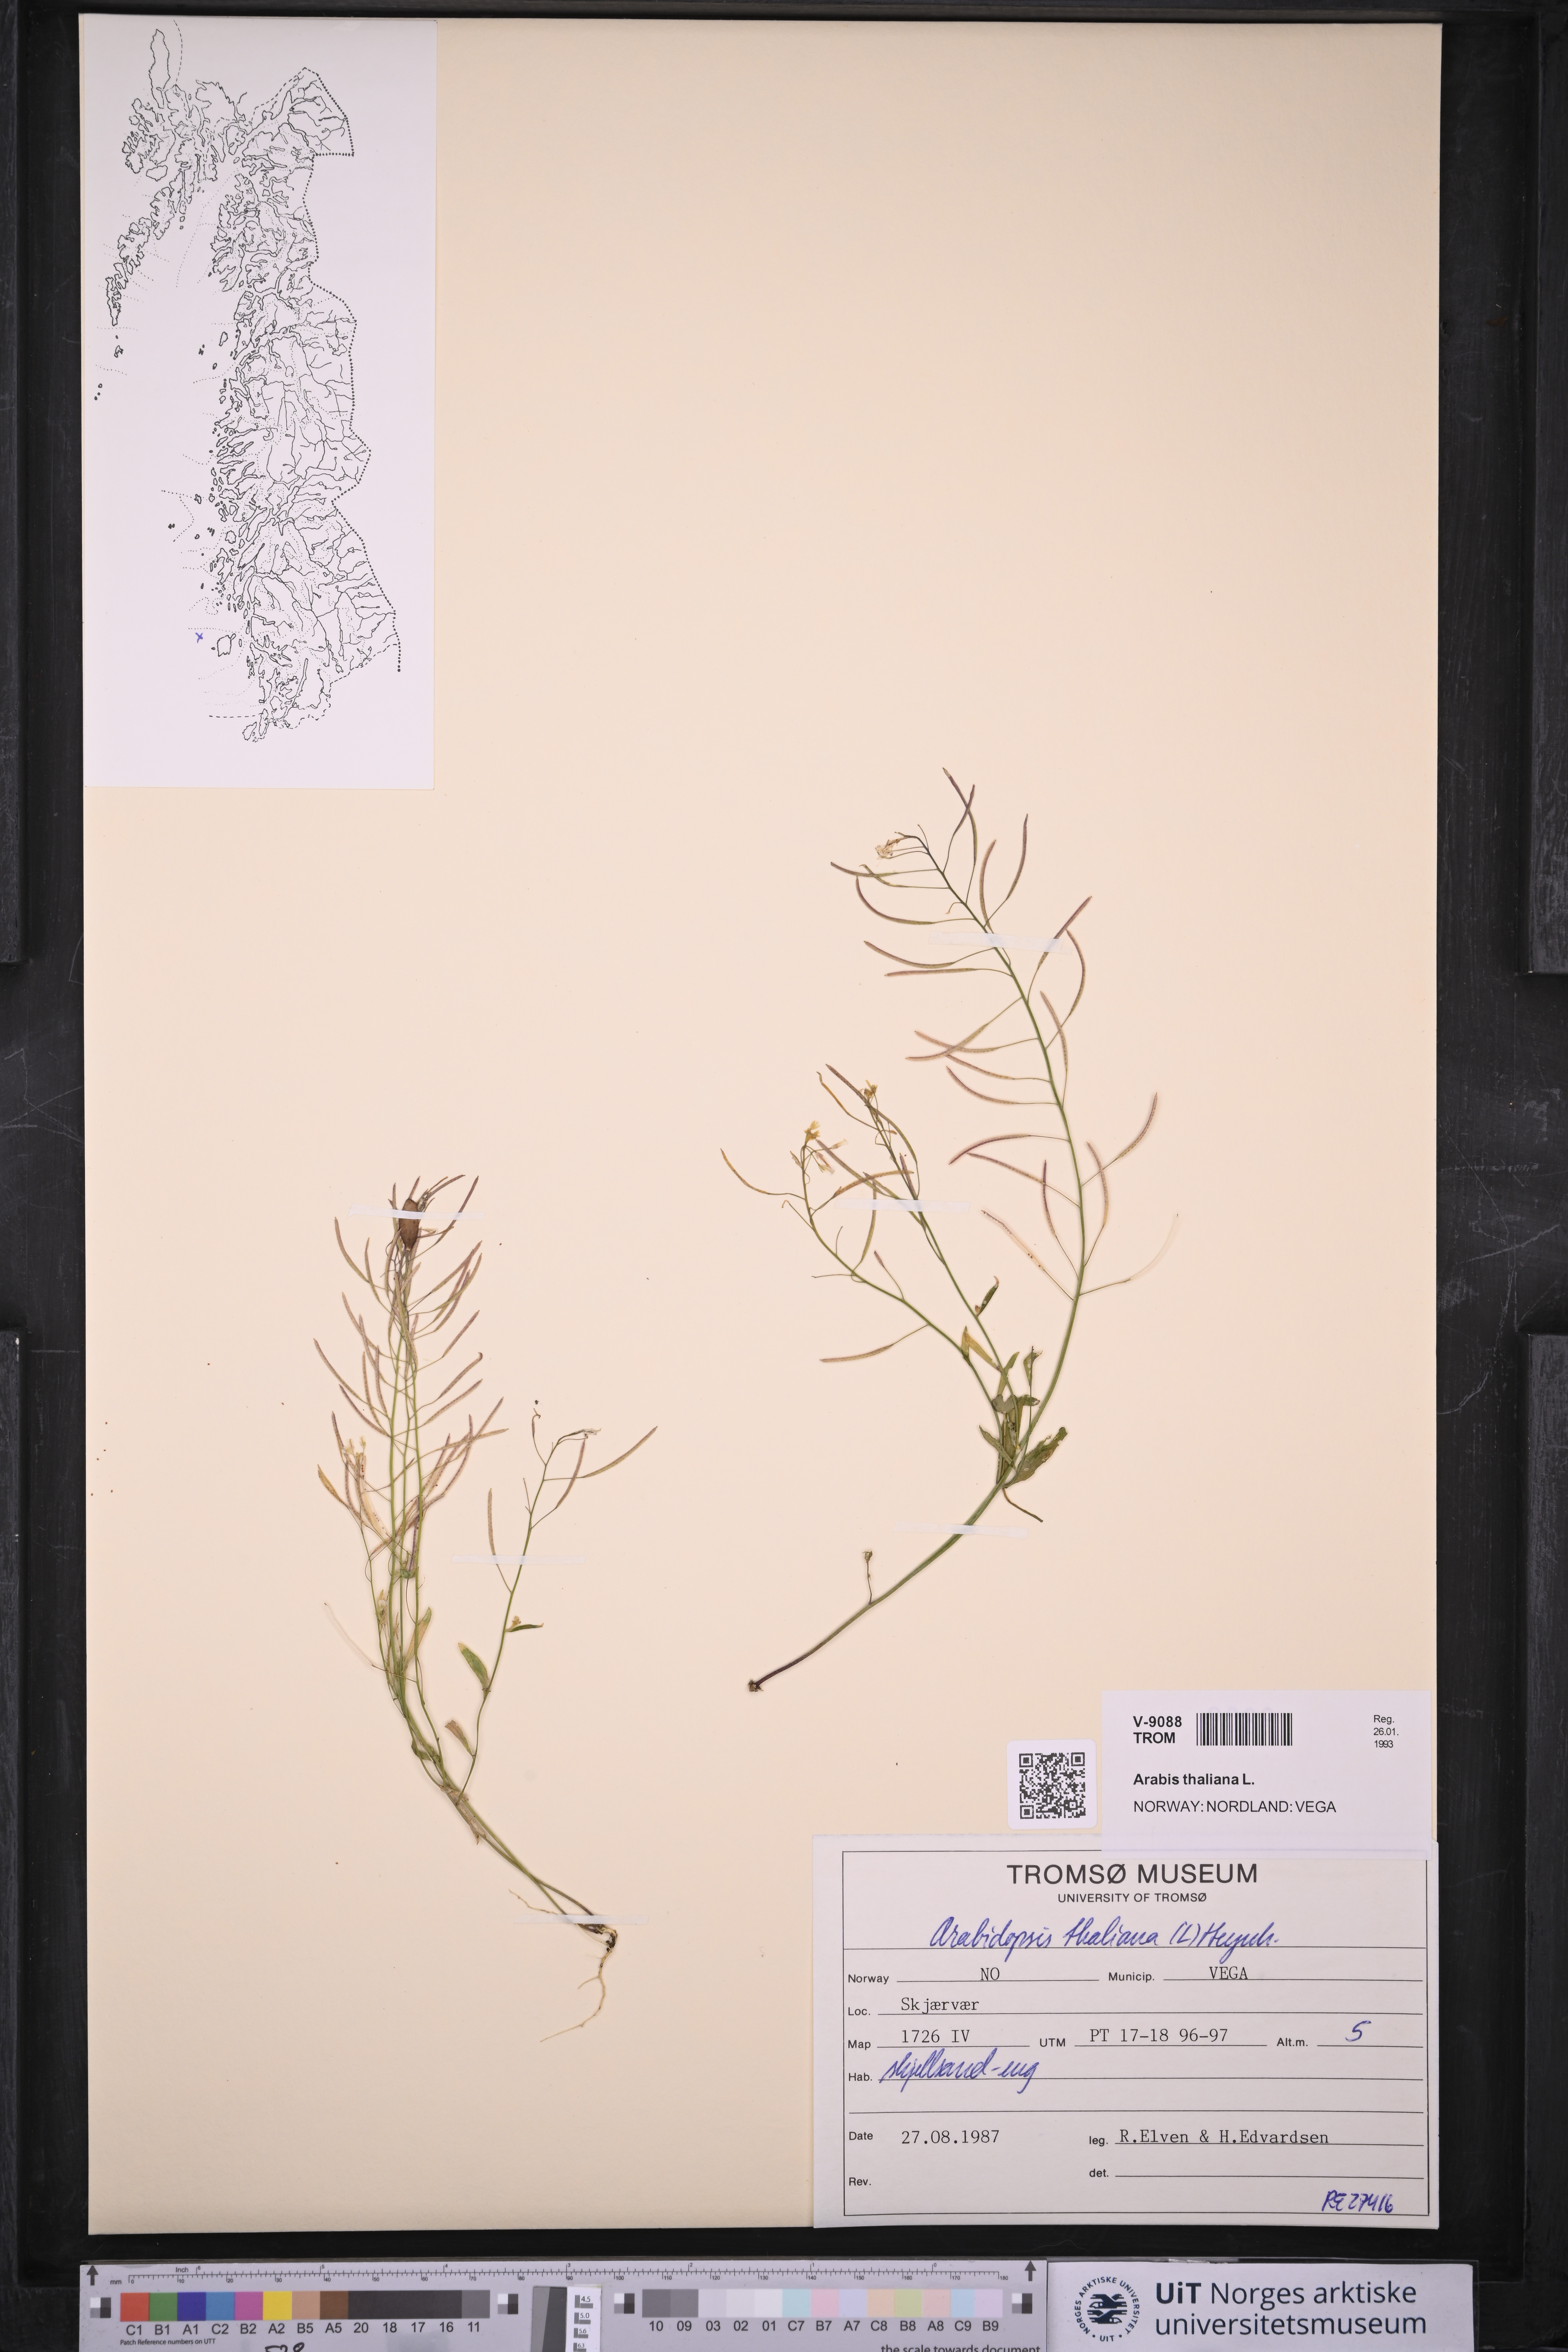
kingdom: Plantae
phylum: Tracheophyta
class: Magnoliopsida
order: Brassicales
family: Brassicaceae
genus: Arabidopsis
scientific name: Arabidopsis thaliana
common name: Thale cress
